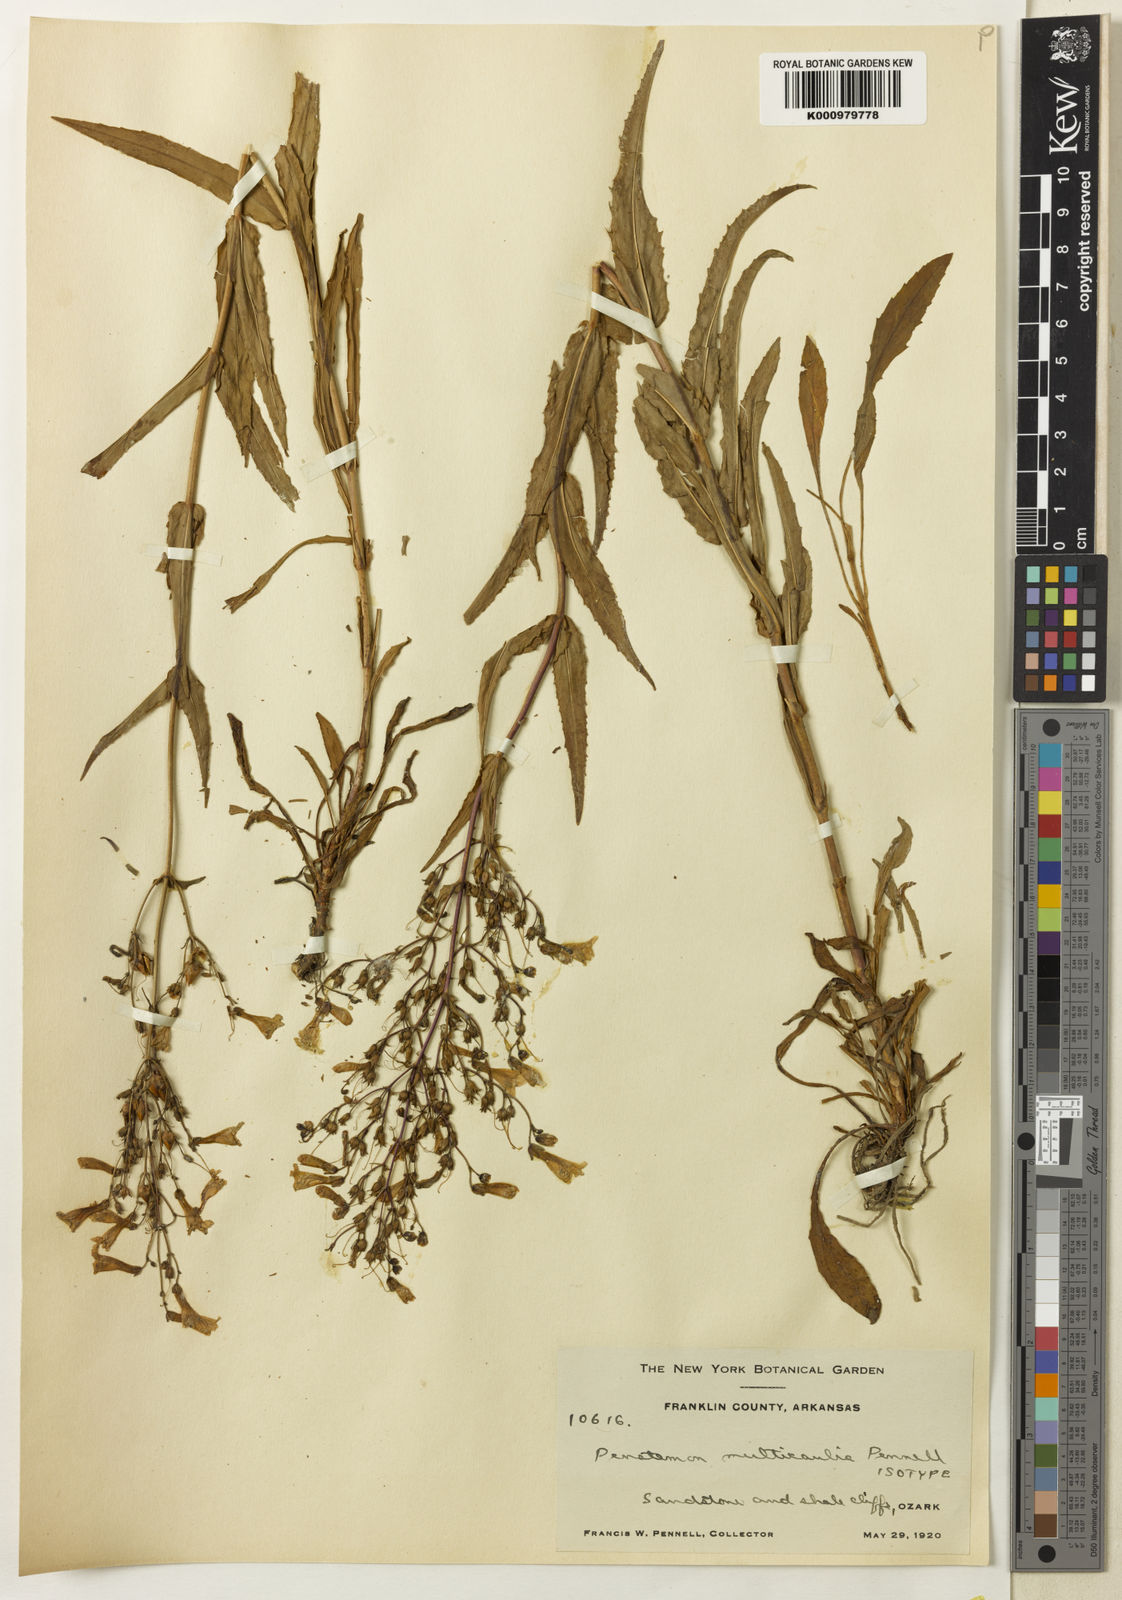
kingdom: Plantae
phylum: Tracheophyta
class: Magnoliopsida
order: Lamiales
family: Plantaginaceae
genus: Penstemon
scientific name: Penstemon arkansanus
